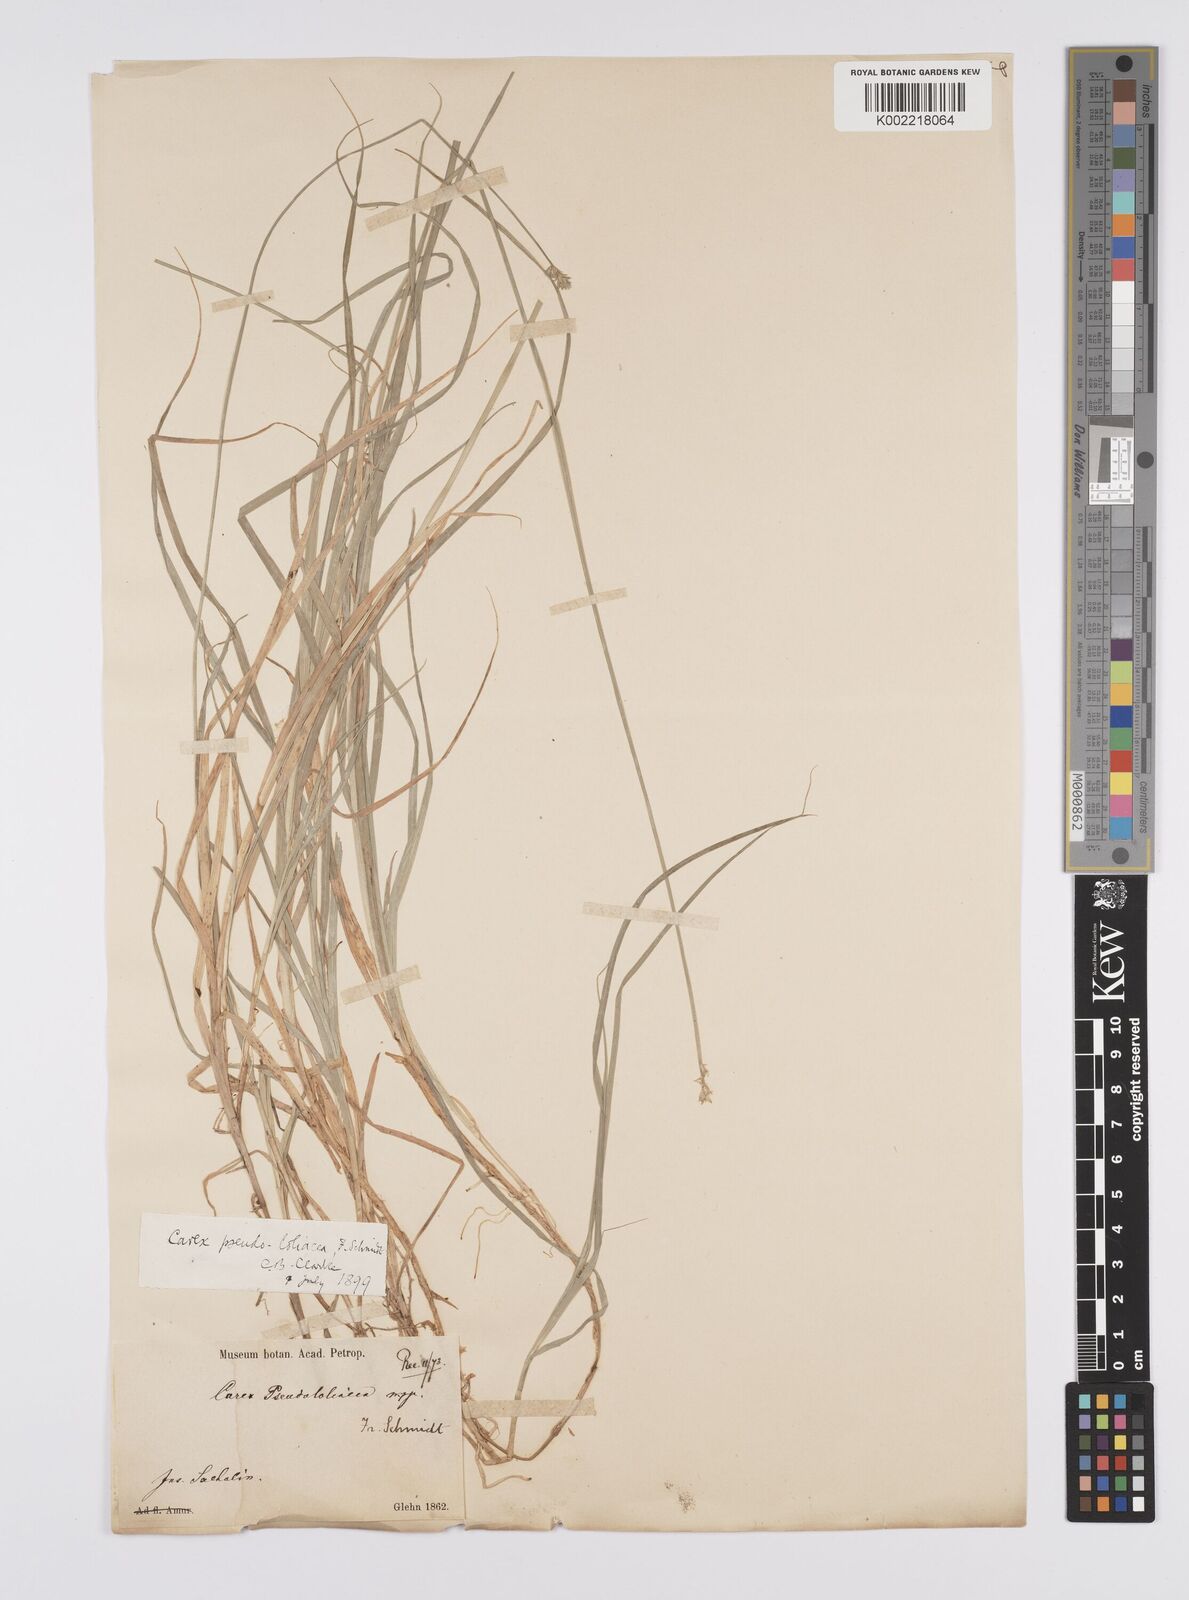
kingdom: Plantae
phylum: Tracheophyta
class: Liliopsida
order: Poales
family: Cyperaceae
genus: Carex
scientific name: Carex pseudololiacea
